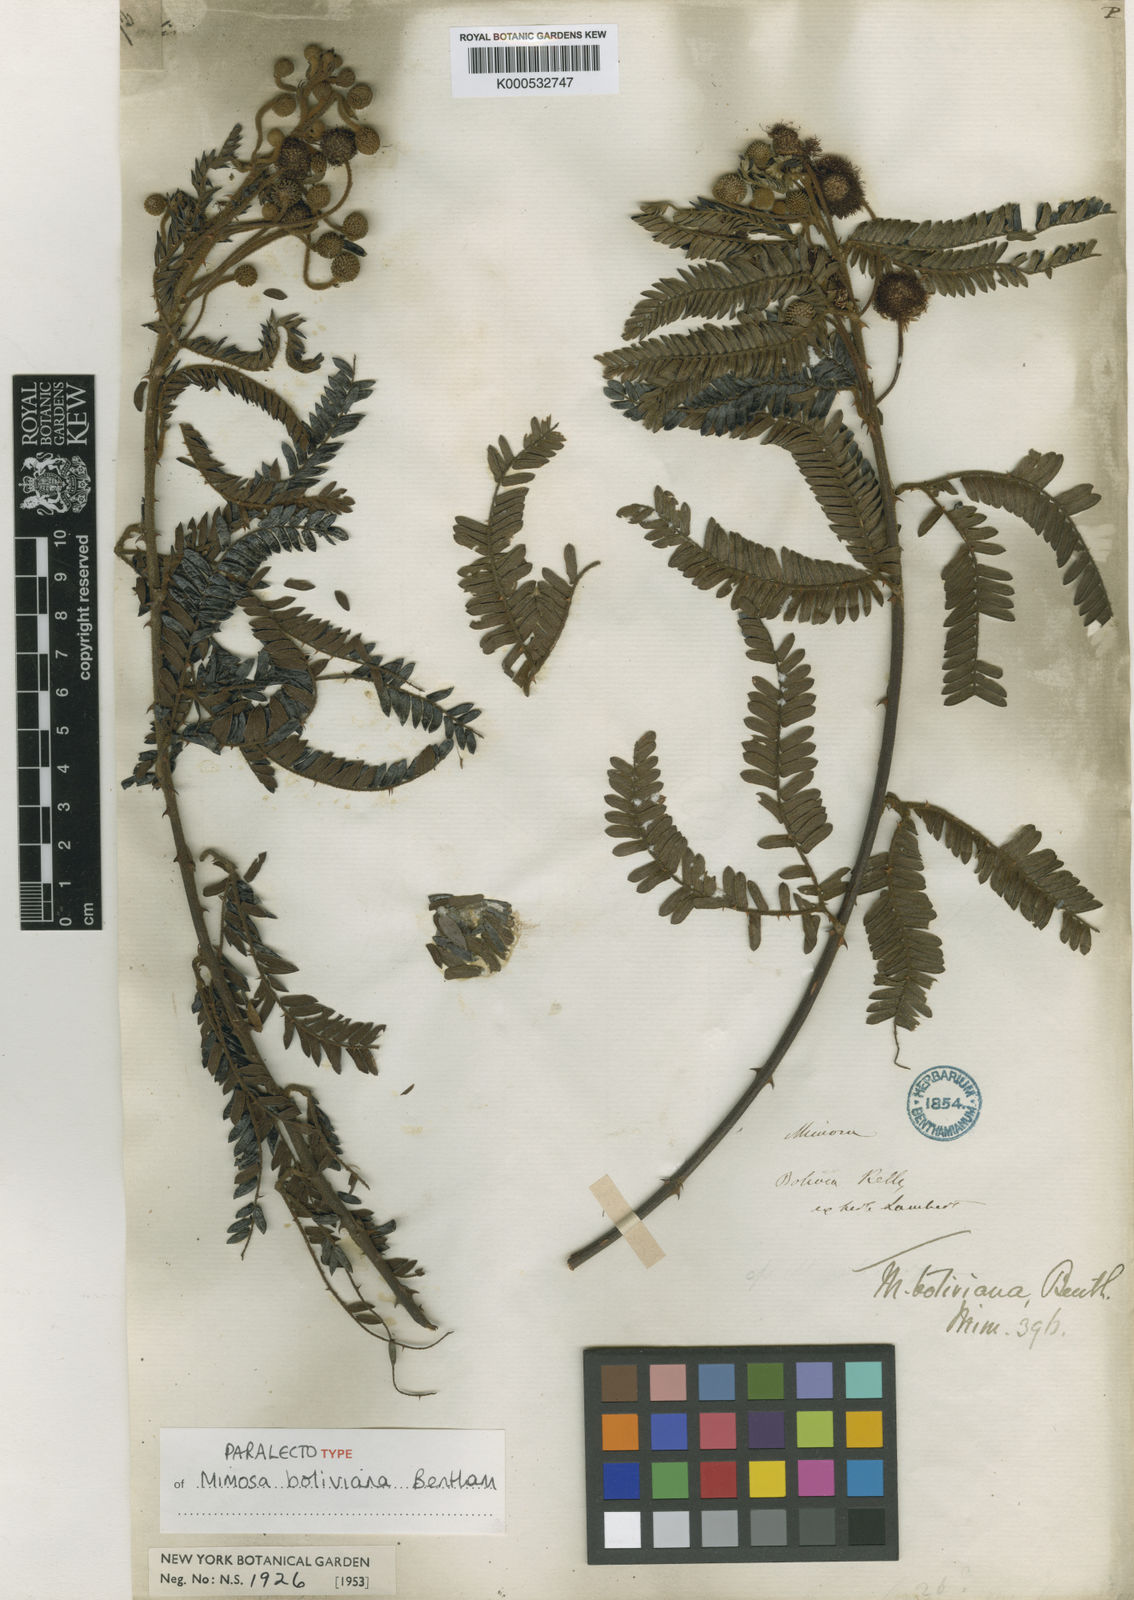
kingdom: Plantae
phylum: Tracheophyta
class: Magnoliopsida
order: Fabales
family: Fabaceae
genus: Mimosa
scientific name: Mimosa boliviana
